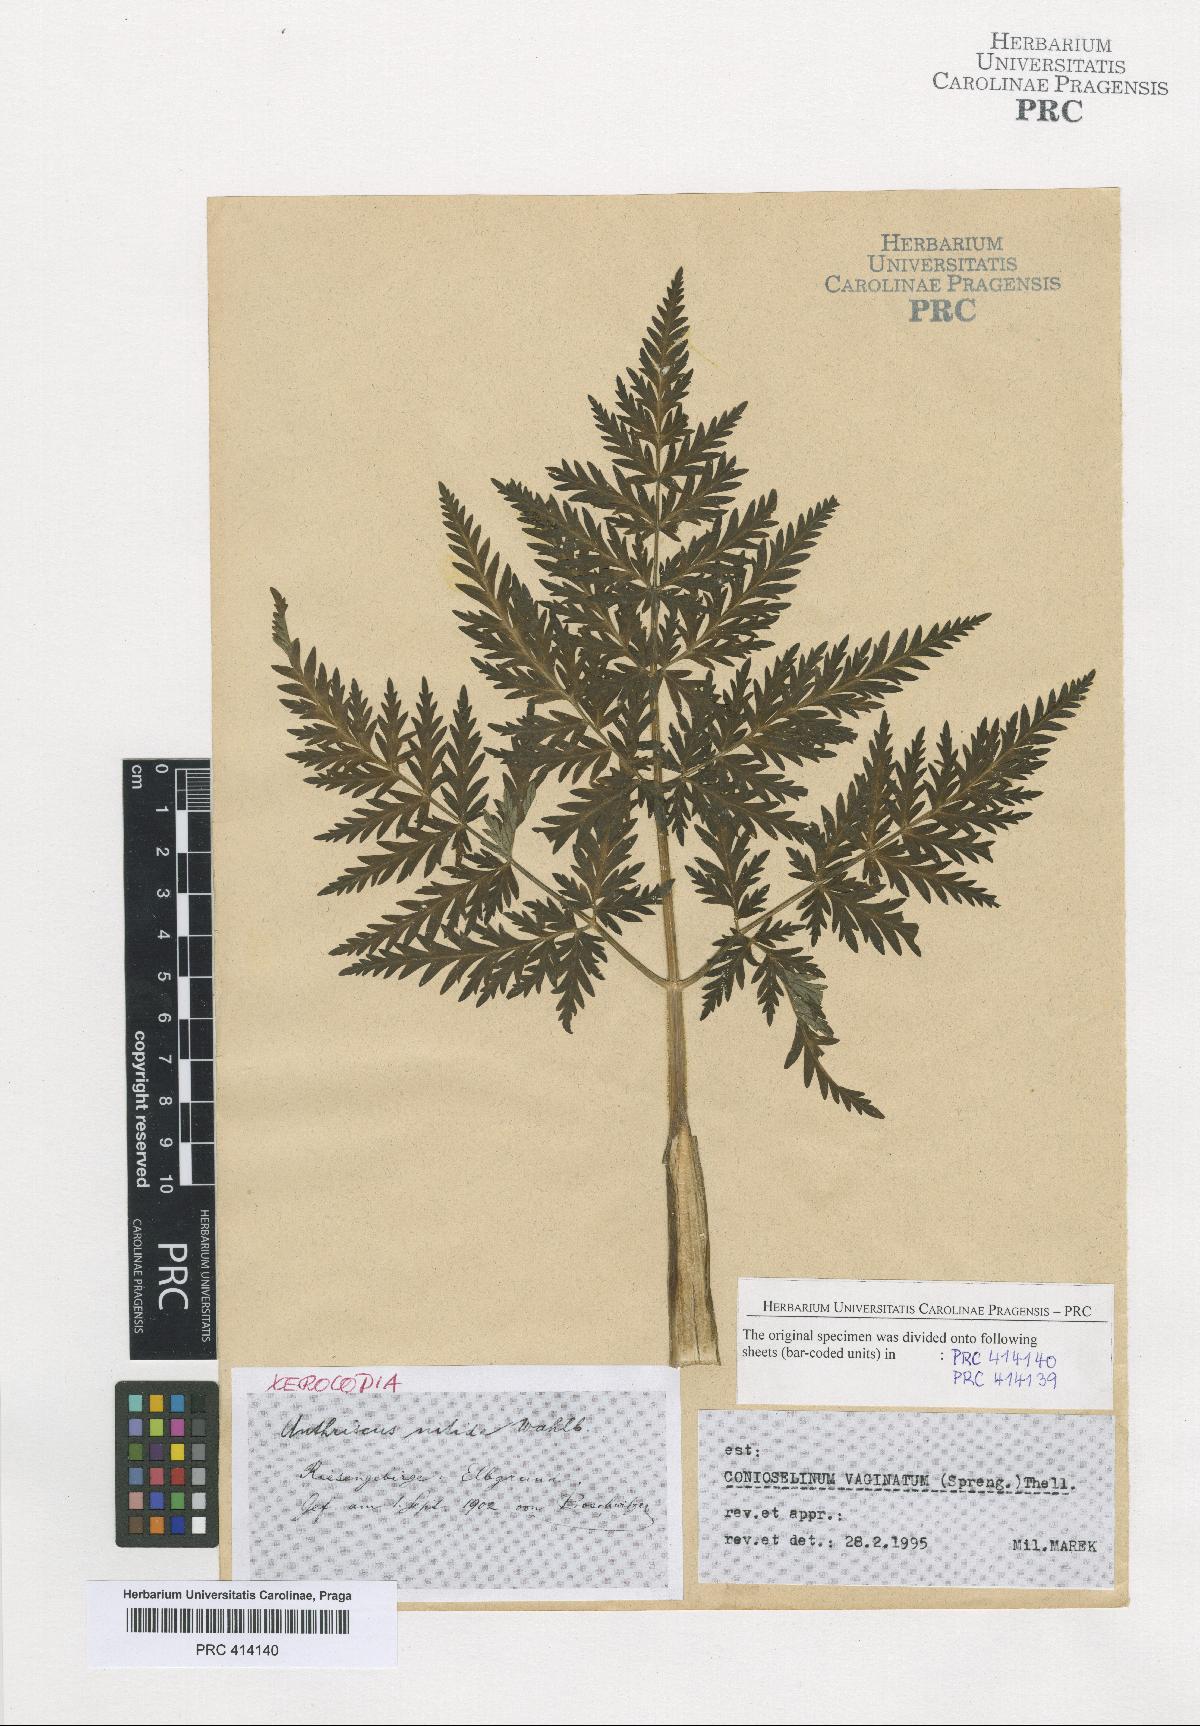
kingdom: Plantae
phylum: Tracheophyta
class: Magnoliopsida
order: Apiales
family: Apiaceae
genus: Seseli
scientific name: Seseli condensatum
